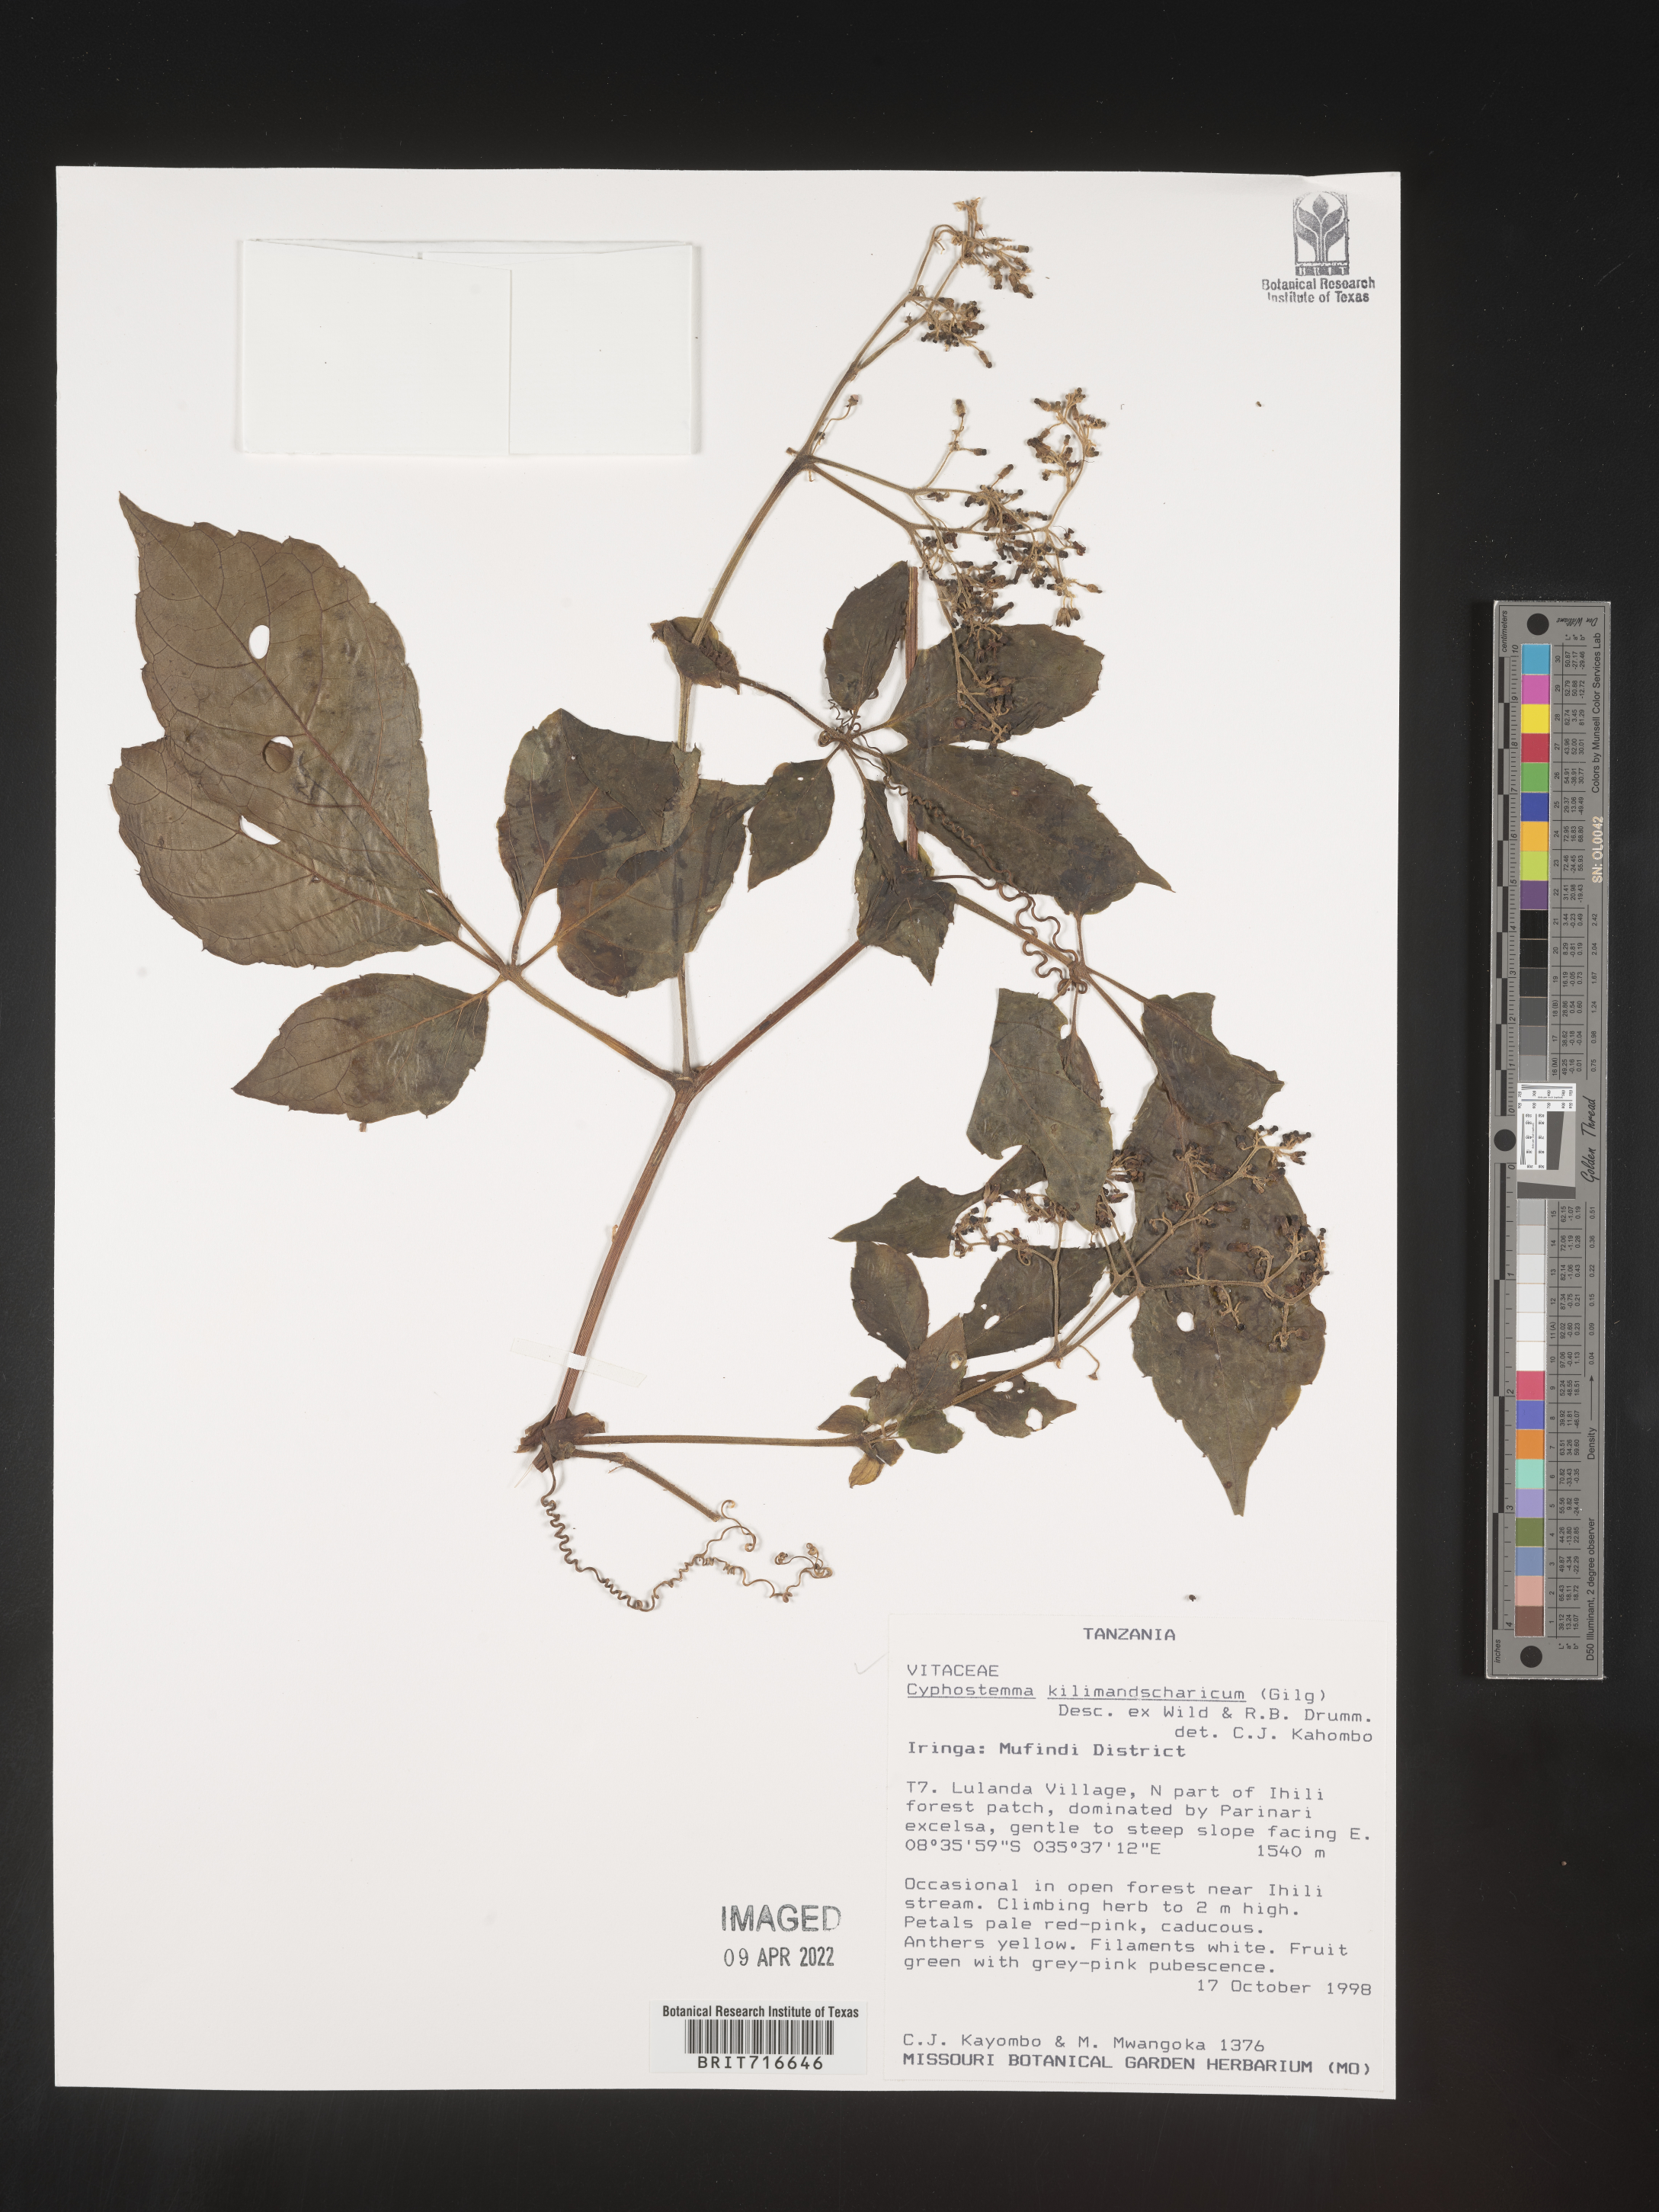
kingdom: Plantae
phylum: Tracheophyta
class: Magnoliopsida
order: Vitales
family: Vitaceae
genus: Cyphostemma
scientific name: Cyphostemma
